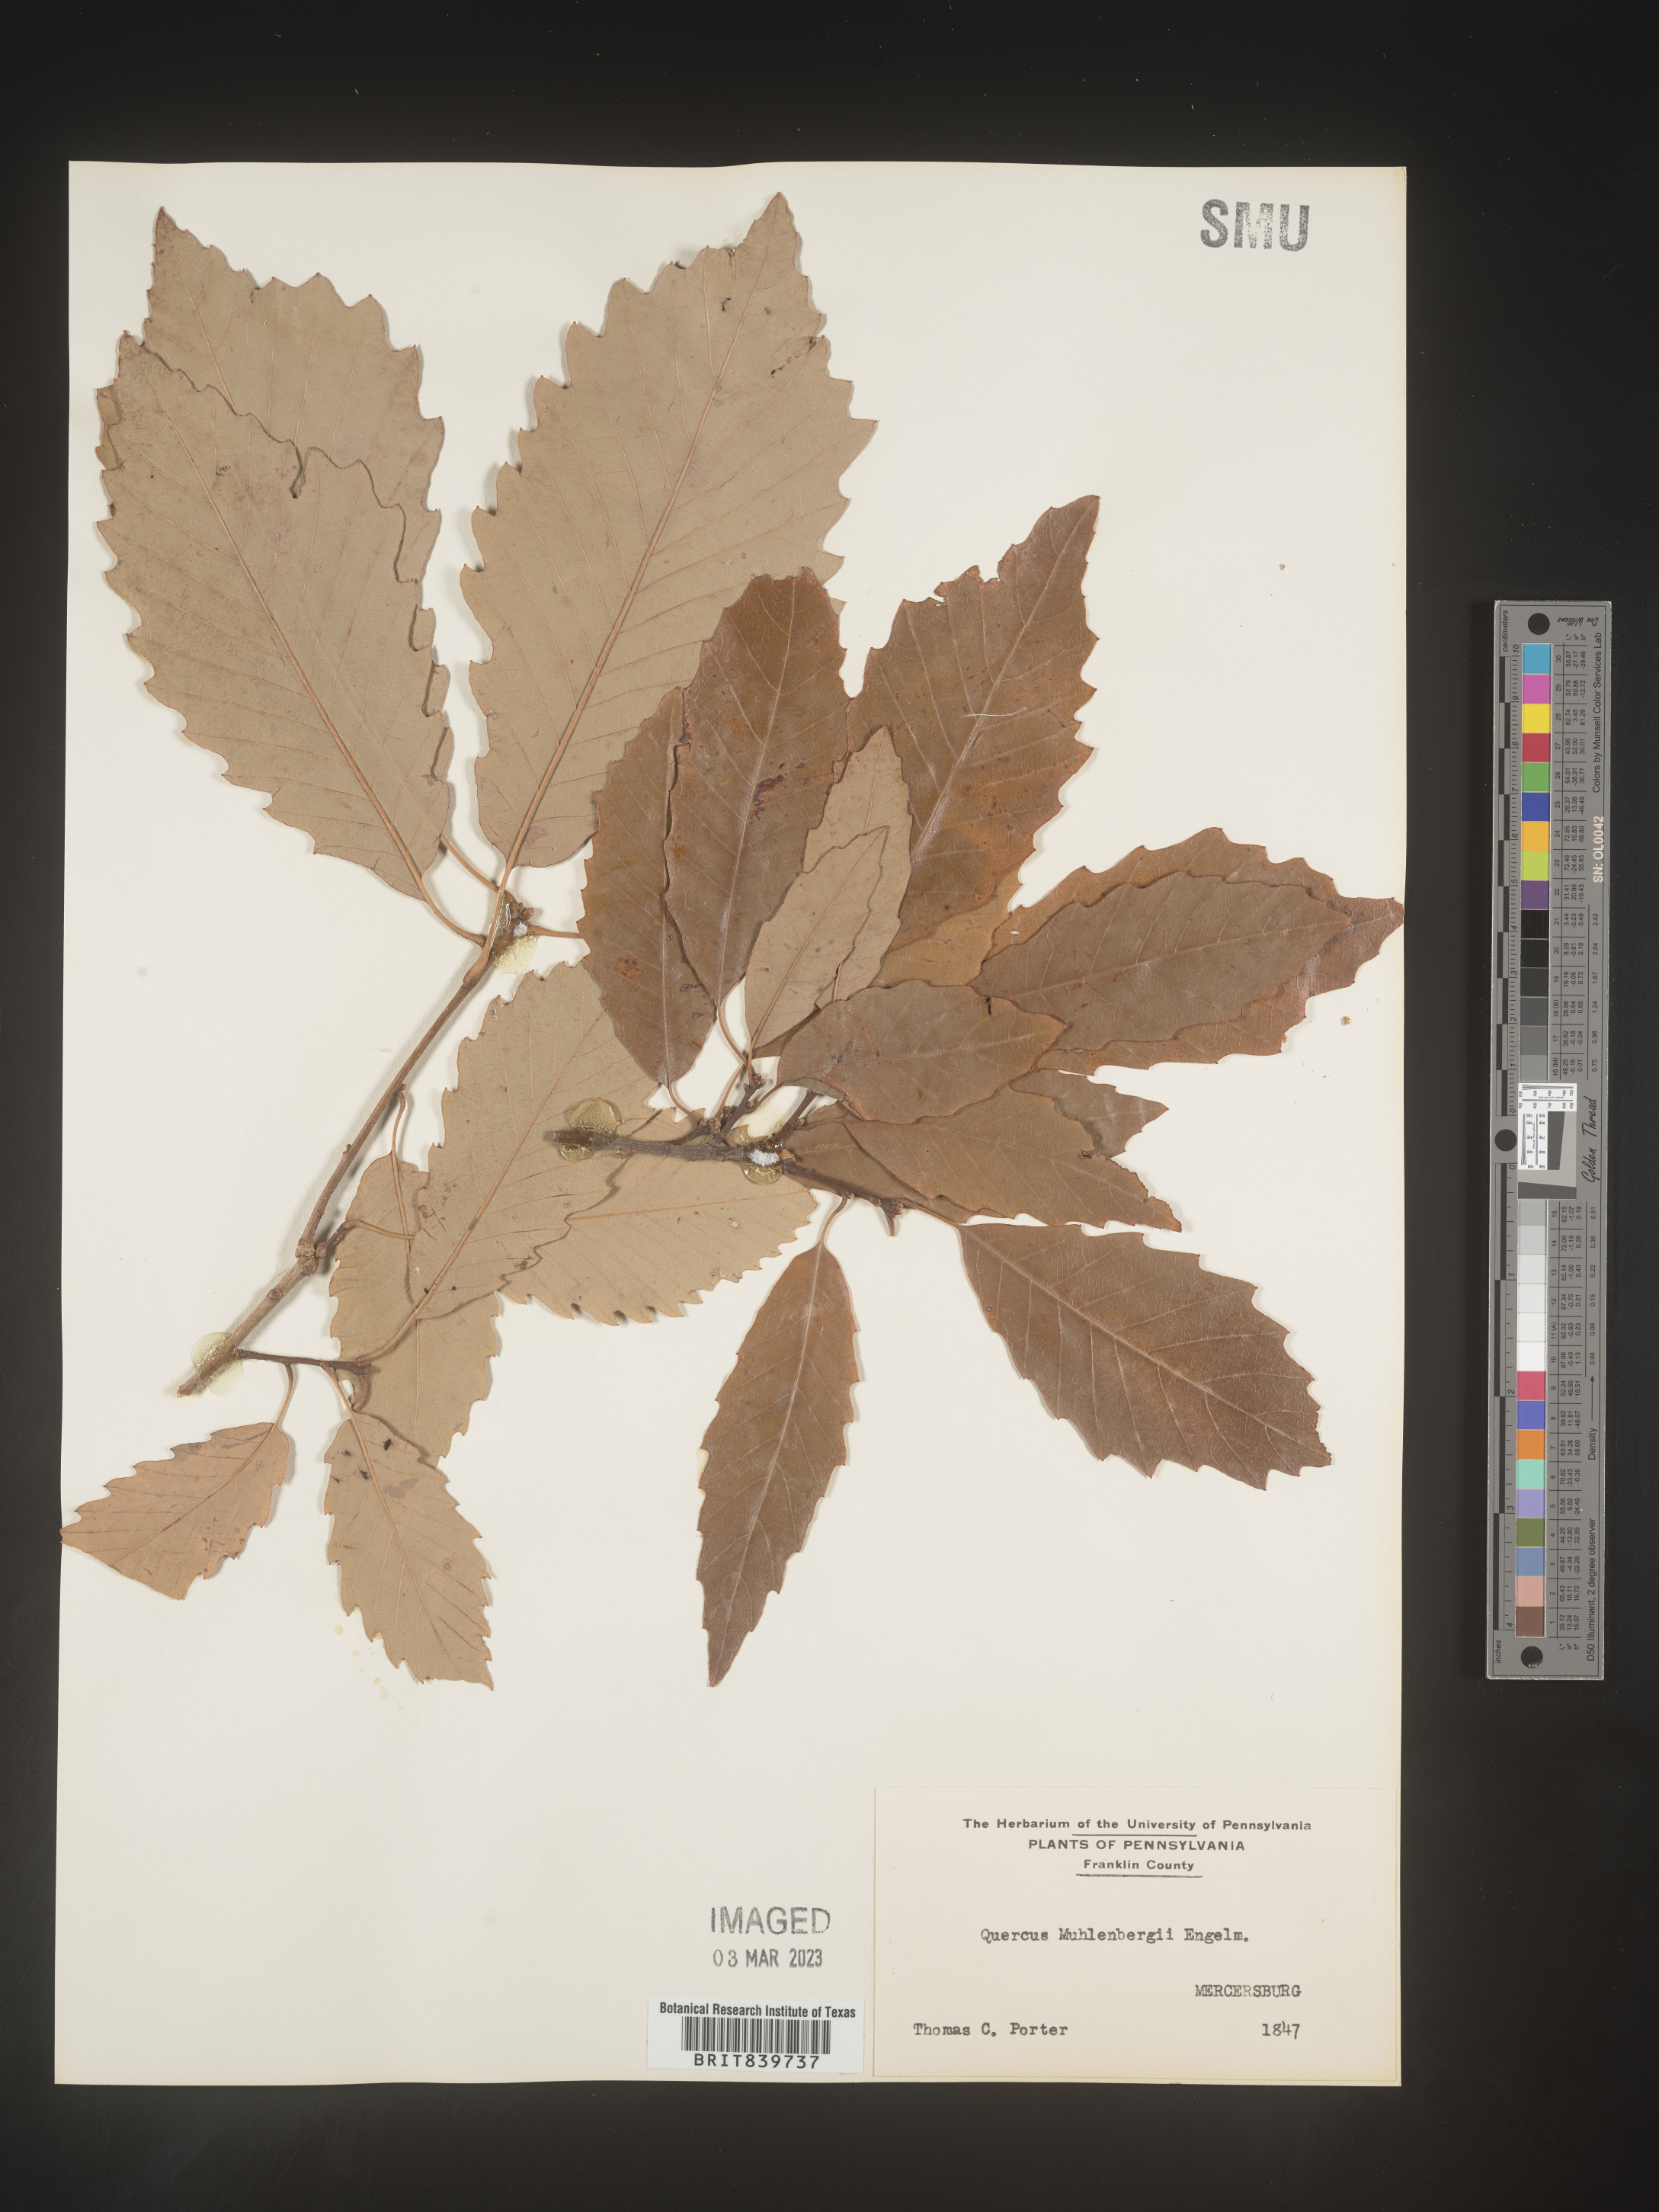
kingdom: Plantae
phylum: Tracheophyta
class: Magnoliopsida
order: Fagales
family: Fagaceae
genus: Quercus
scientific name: Quercus muehlenbergii
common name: Chinkapin oak
